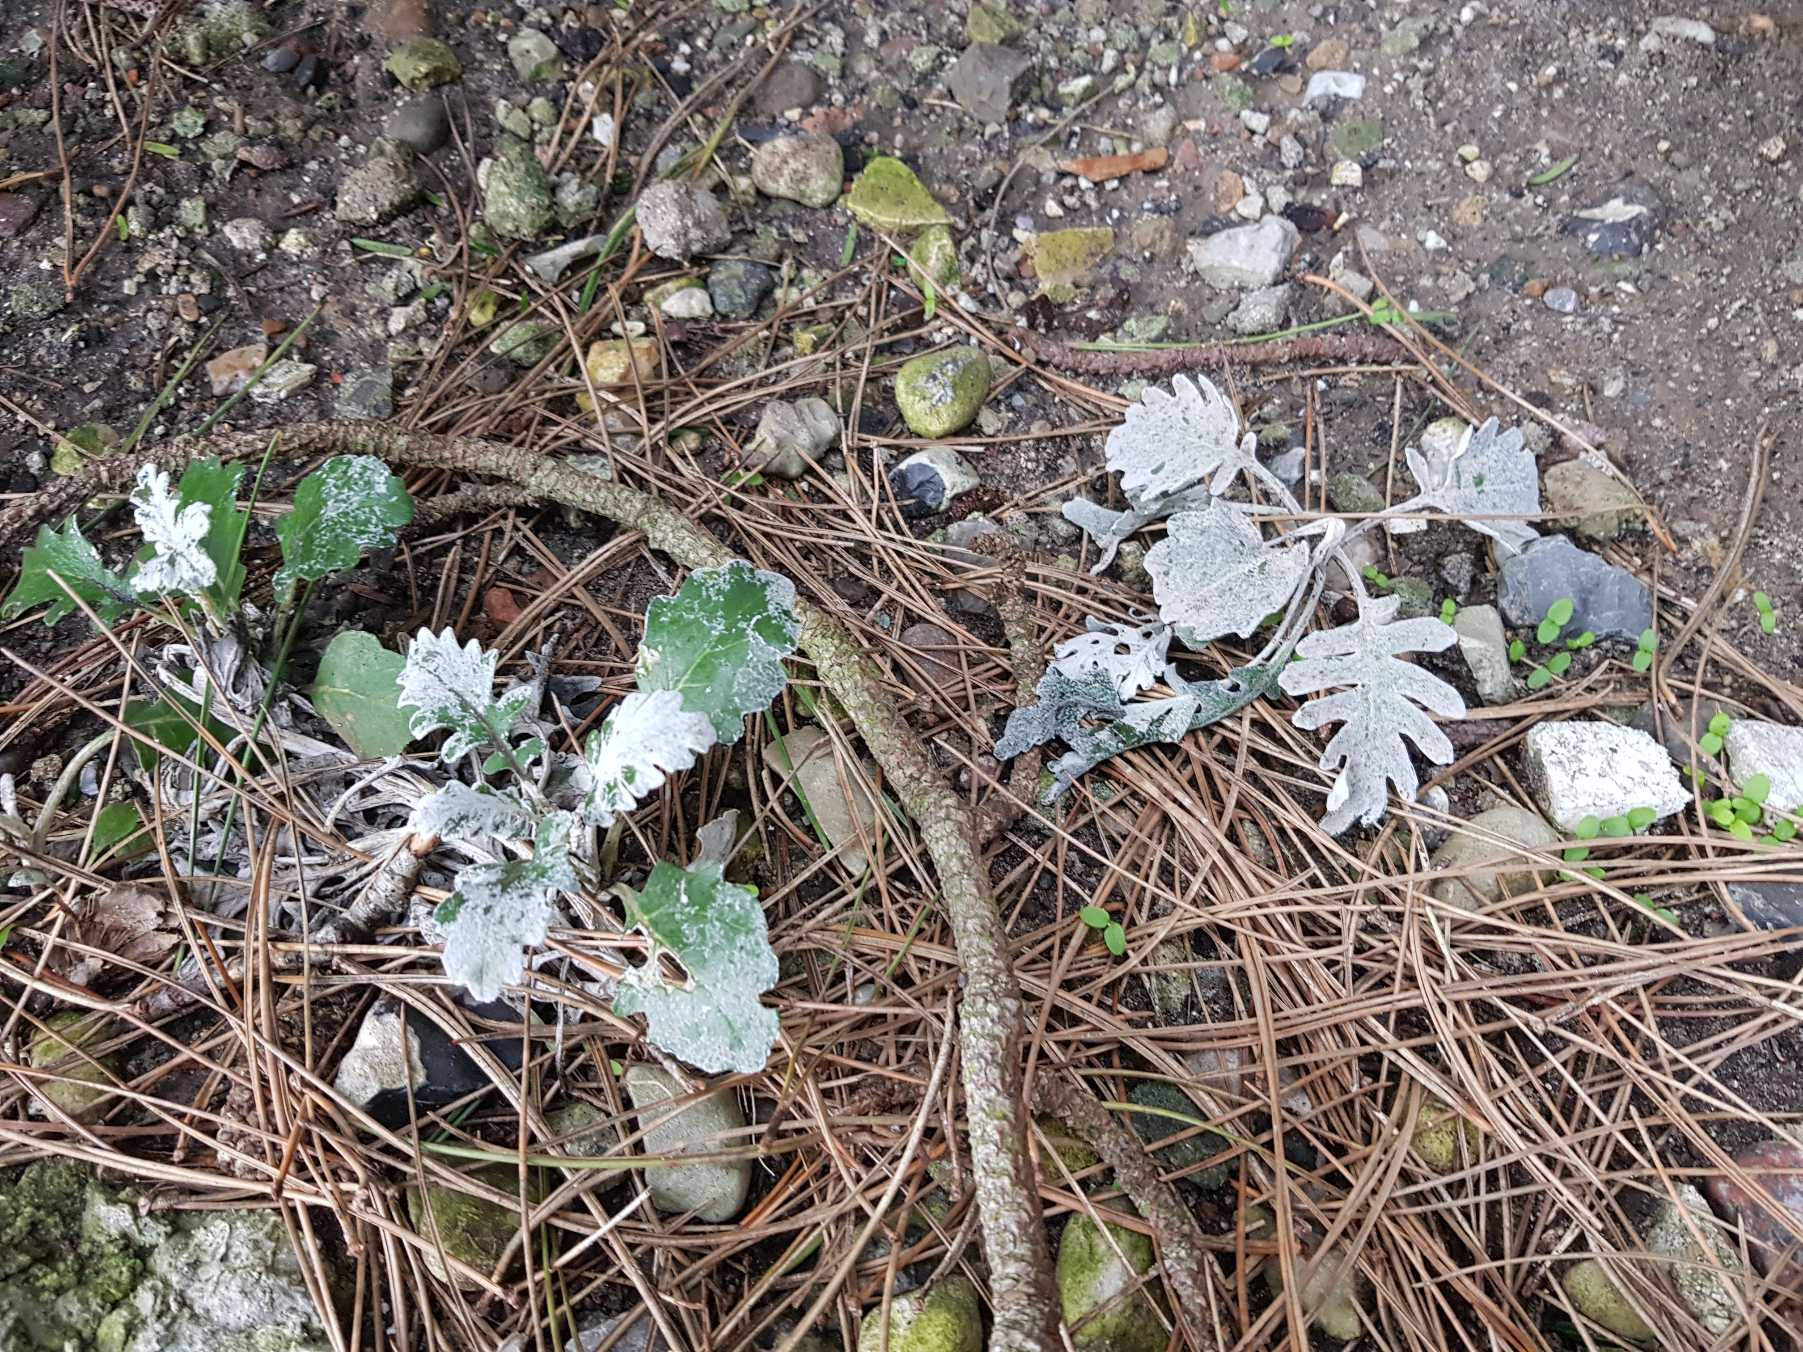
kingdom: Plantae
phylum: Tracheophyta
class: Magnoliopsida
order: Asterales
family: Asteraceae
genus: Jacobaea
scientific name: Jacobaea maritima
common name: Gråblad
